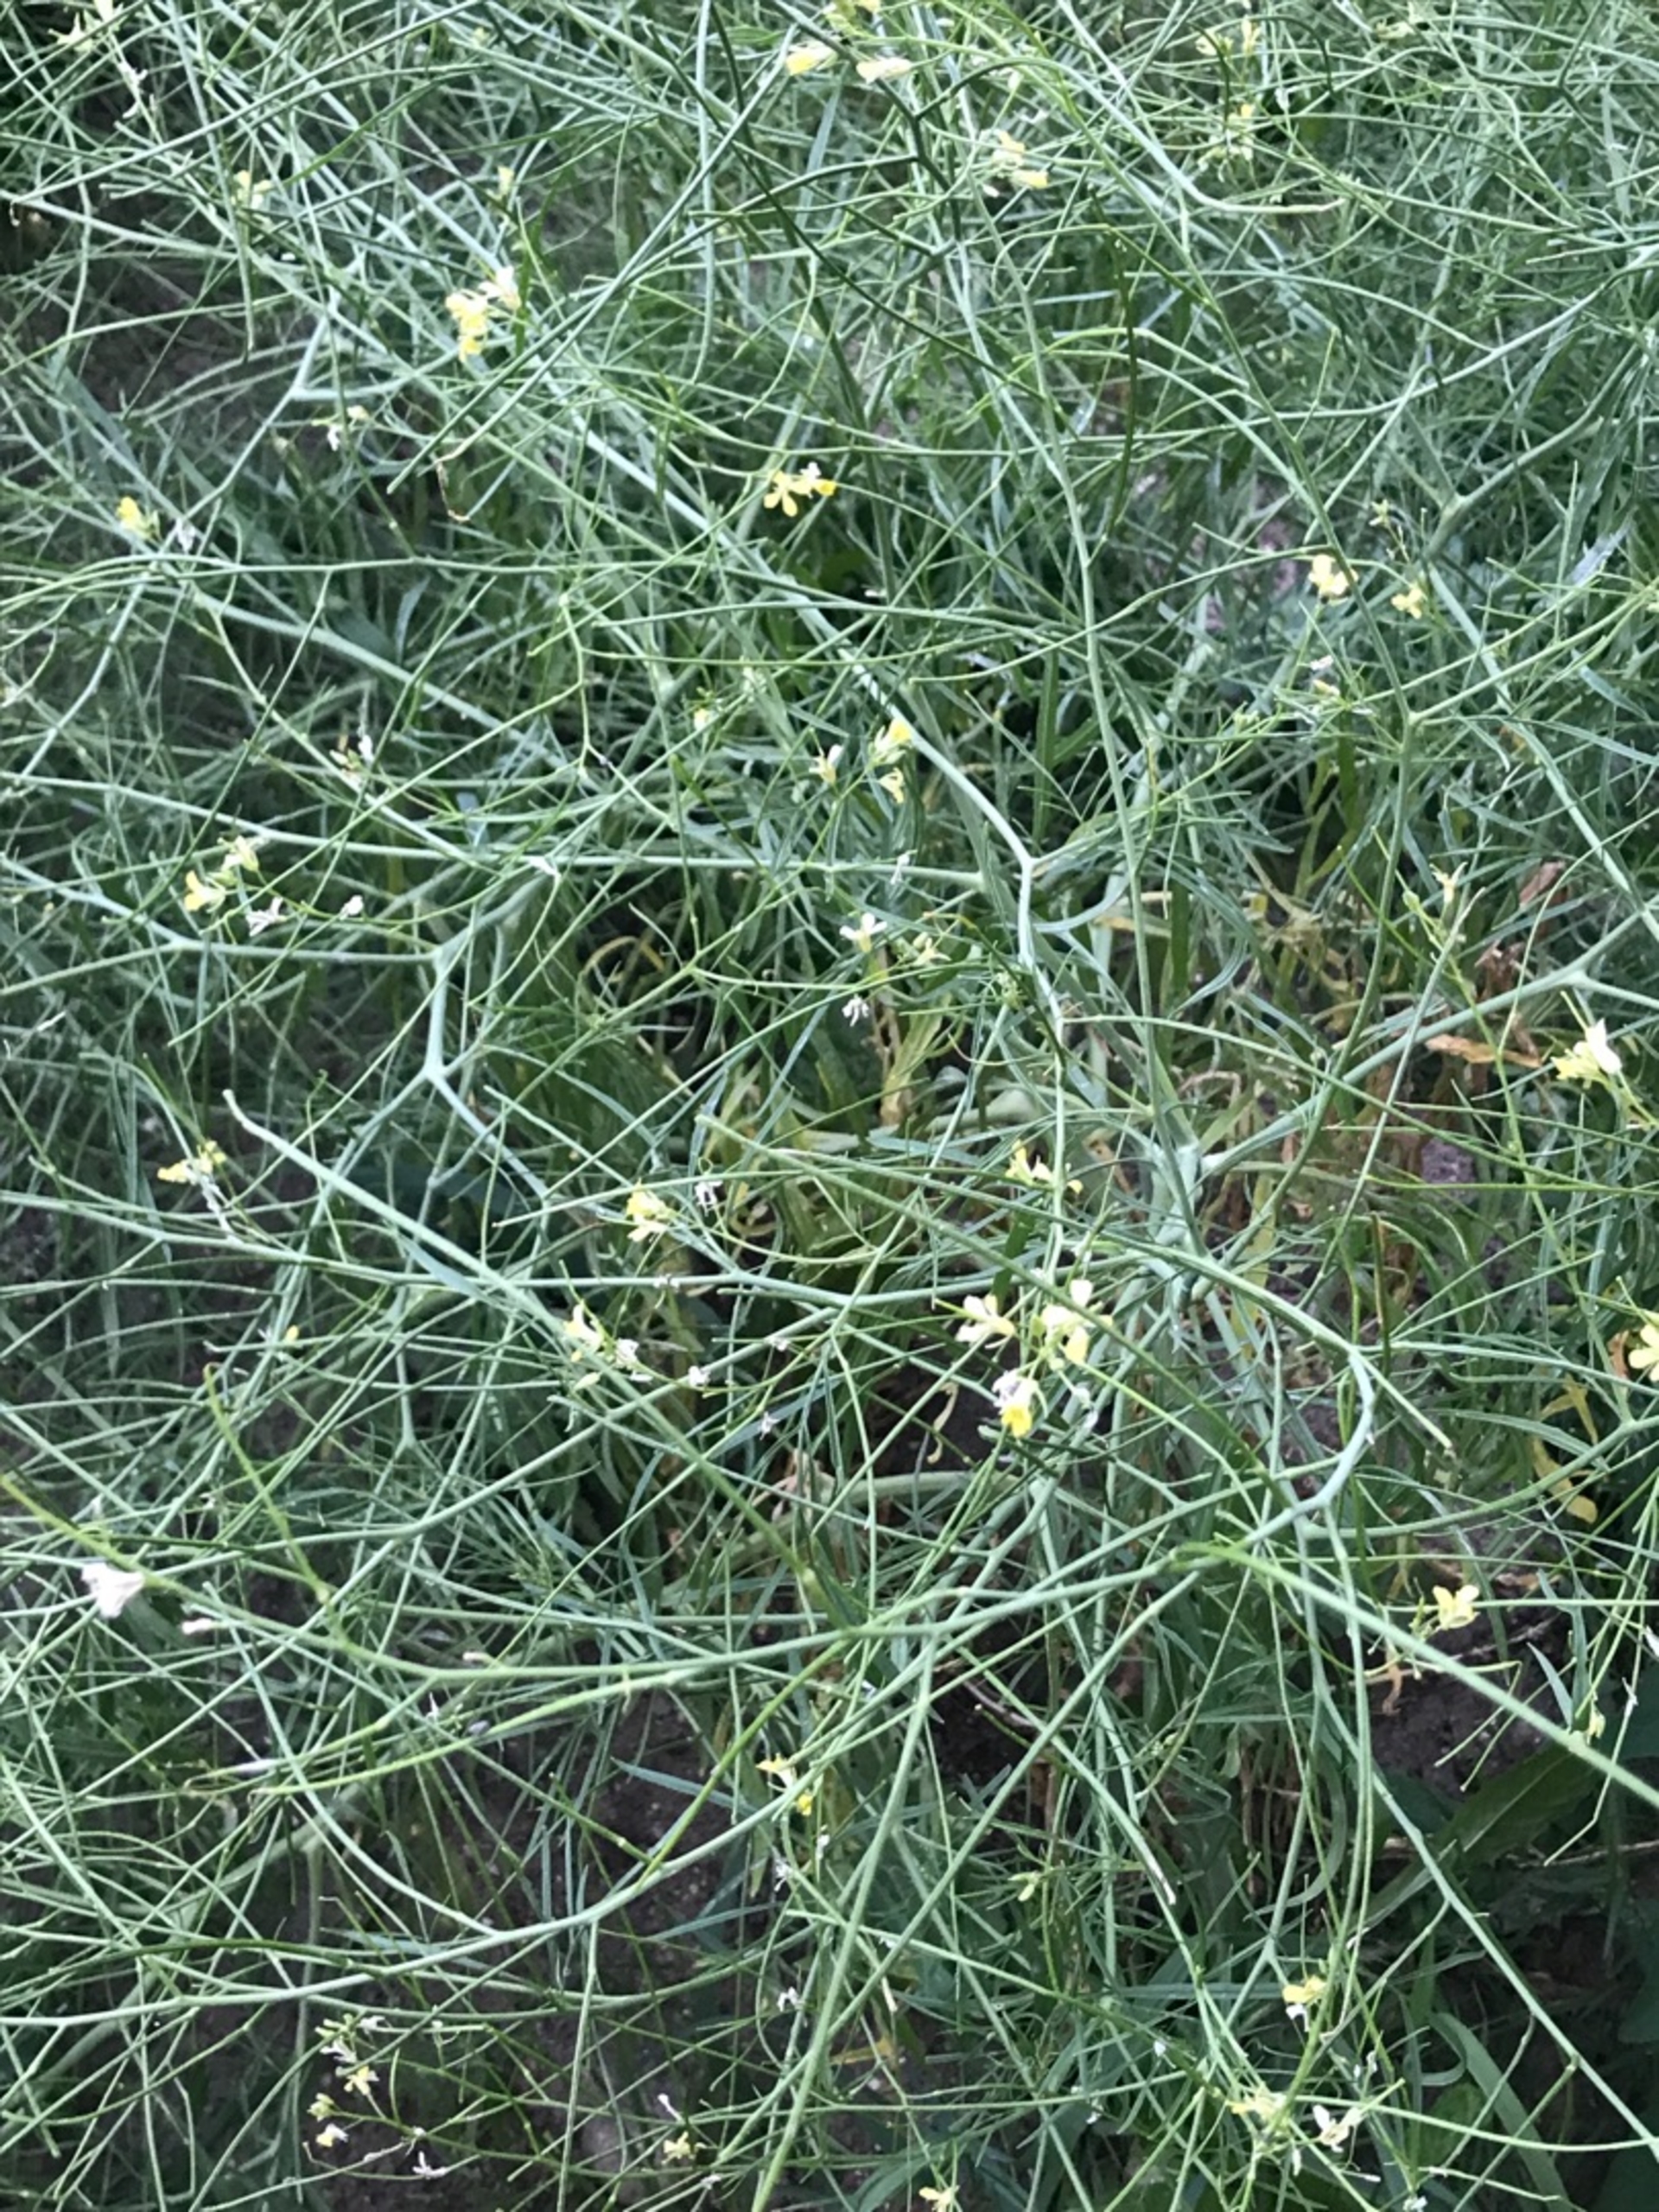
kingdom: Plantae
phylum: Tracheophyta
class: Magnoliopsida
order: Brassicales
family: Brassicaceae
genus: Sisymbrium
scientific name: Sisymbrium altissimum
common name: Ungarsk vejsennep
